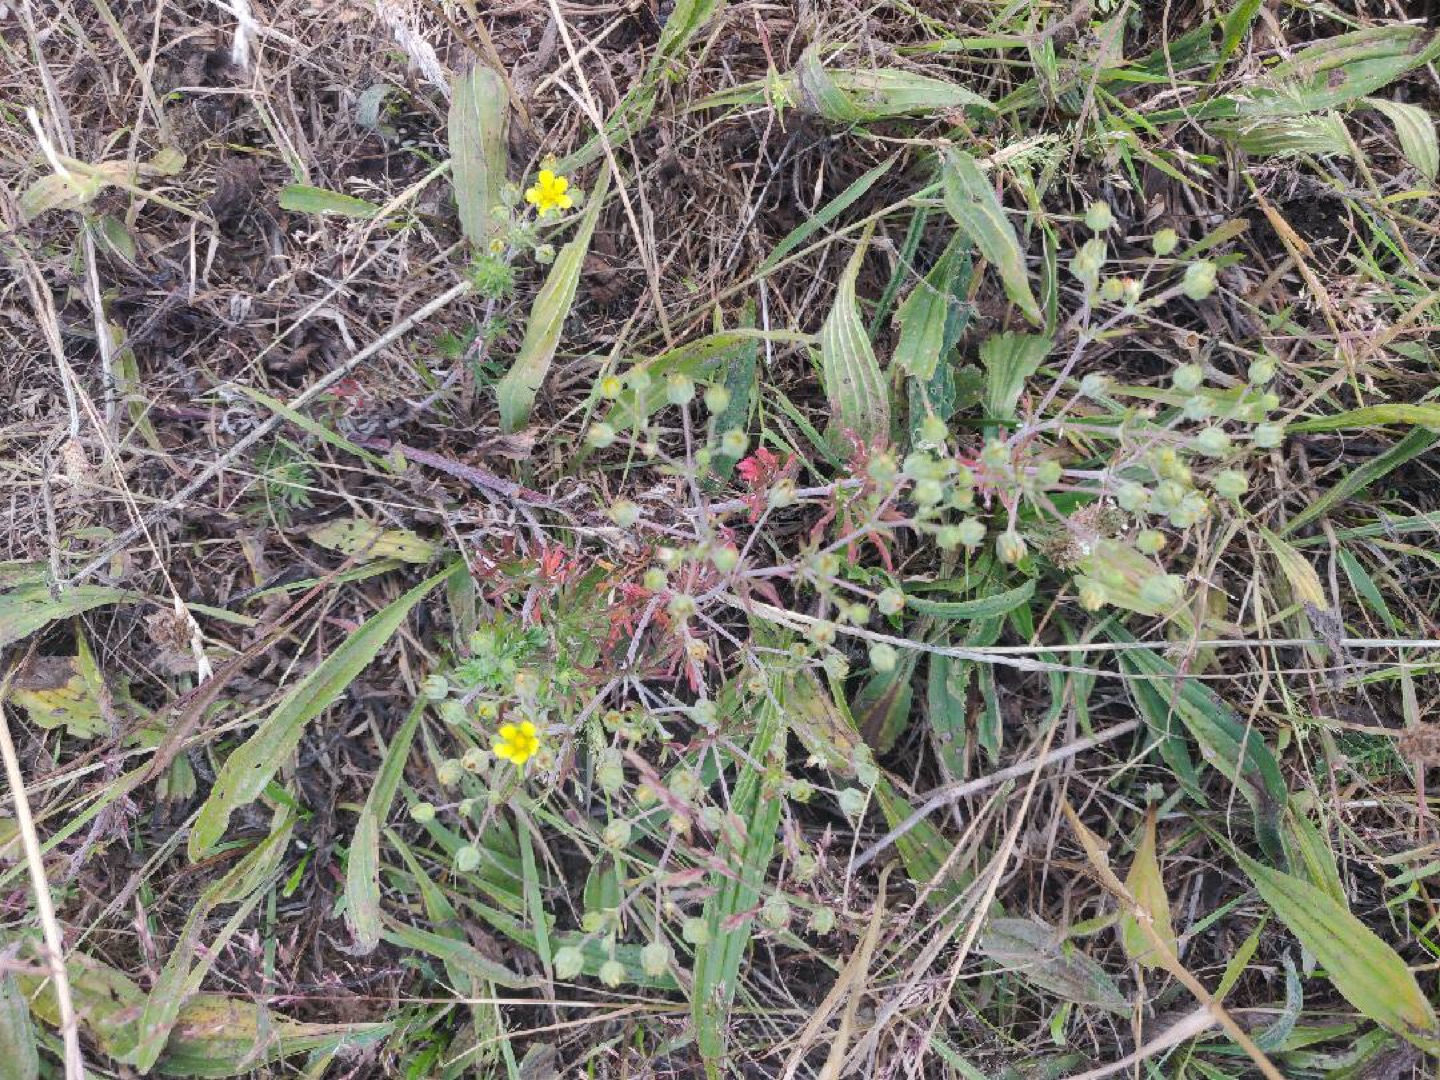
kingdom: Plantae
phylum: Tracheophyta
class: Magnoliopsida
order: Rosales
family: Rosaceae
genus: Potentilla
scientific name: Potentilla argentea
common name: Sølv-potentil
